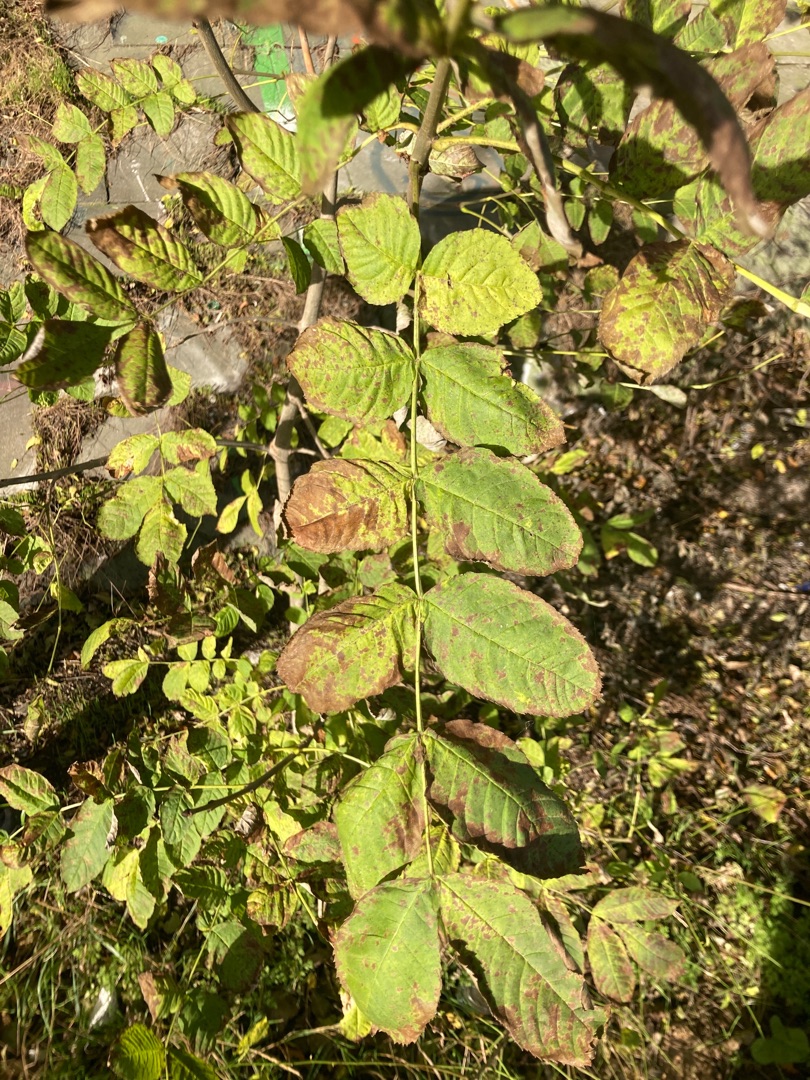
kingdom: Plantae
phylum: Tracheophyta
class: Magnoliopsida
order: Lamiales
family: Oleaceae
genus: Fraxinus
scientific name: Fraxinus excelsior
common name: Ask
